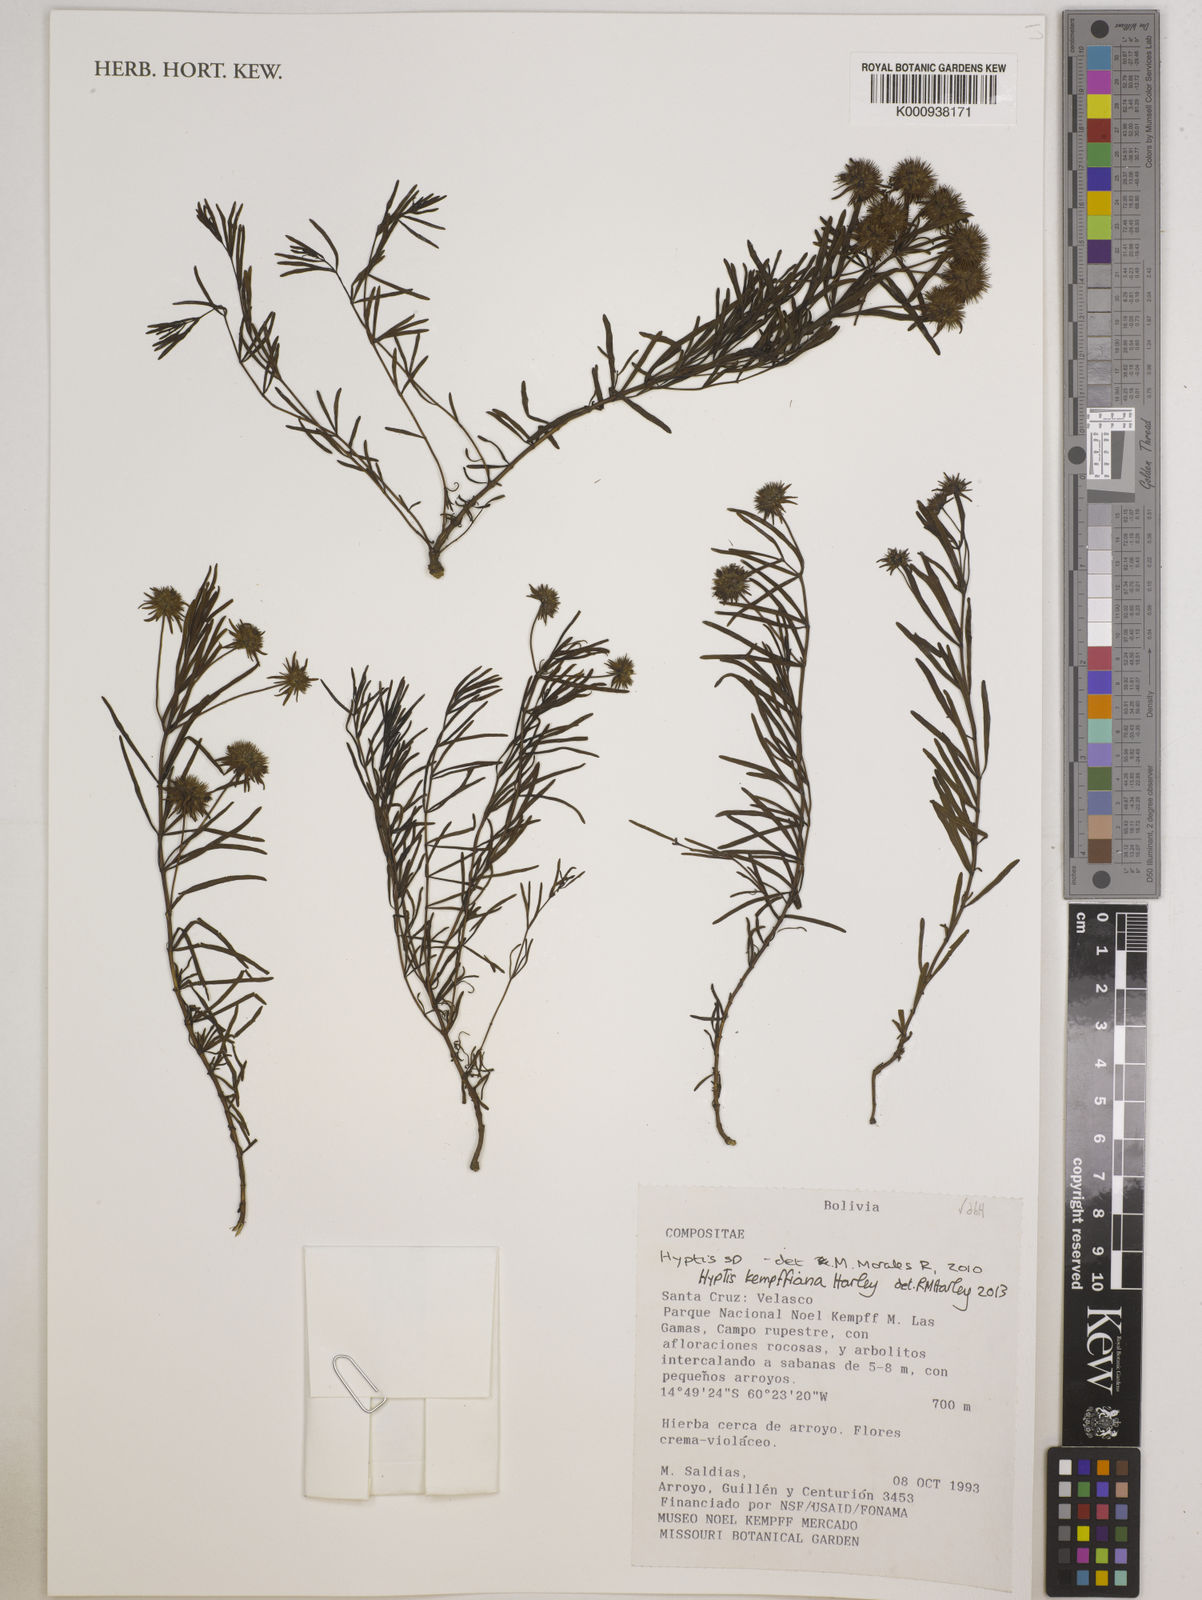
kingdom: Plantae
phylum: Tracheophyta
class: Magnoliopsida
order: Lamiales
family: Lamiaceae
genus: Hyptis
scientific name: Hyptis kempffiana
